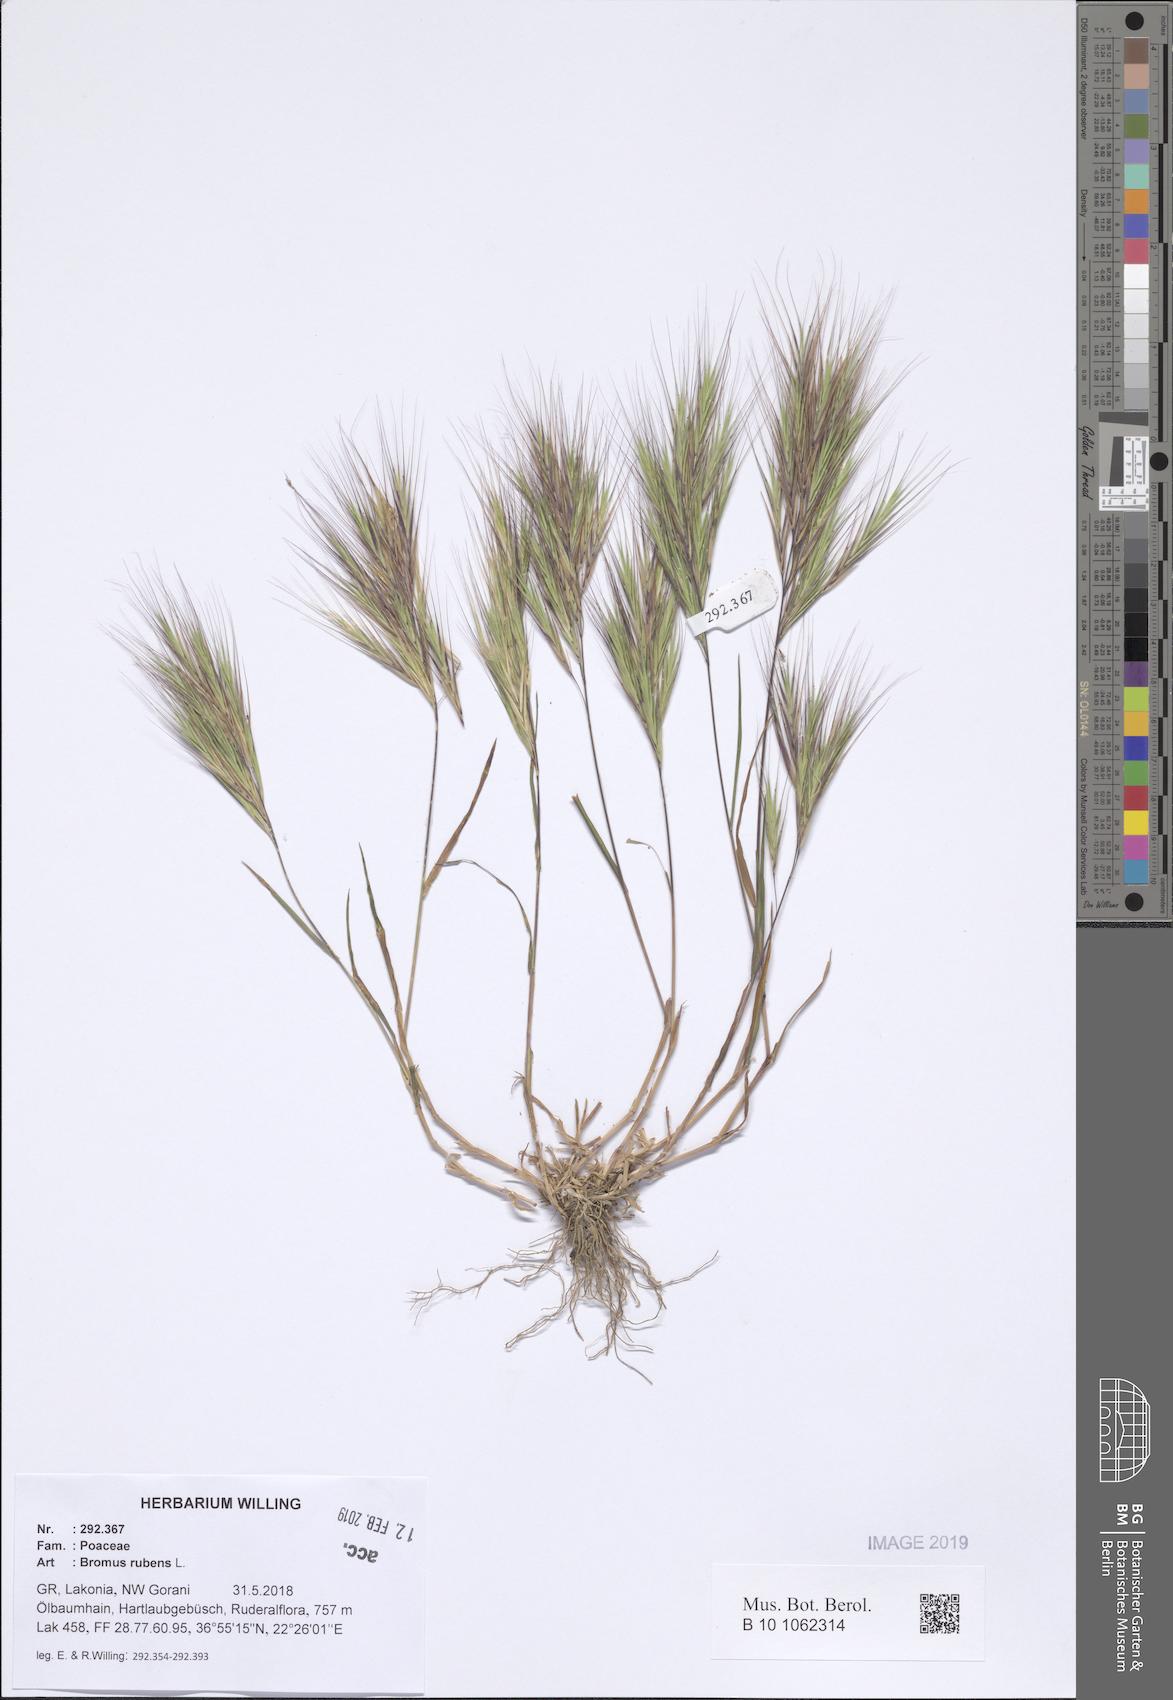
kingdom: Plantae
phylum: Tracheophyta
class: Liliopsida
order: Poales
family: Poaceae
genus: Bromus
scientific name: Bromus rubens
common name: Red brome
